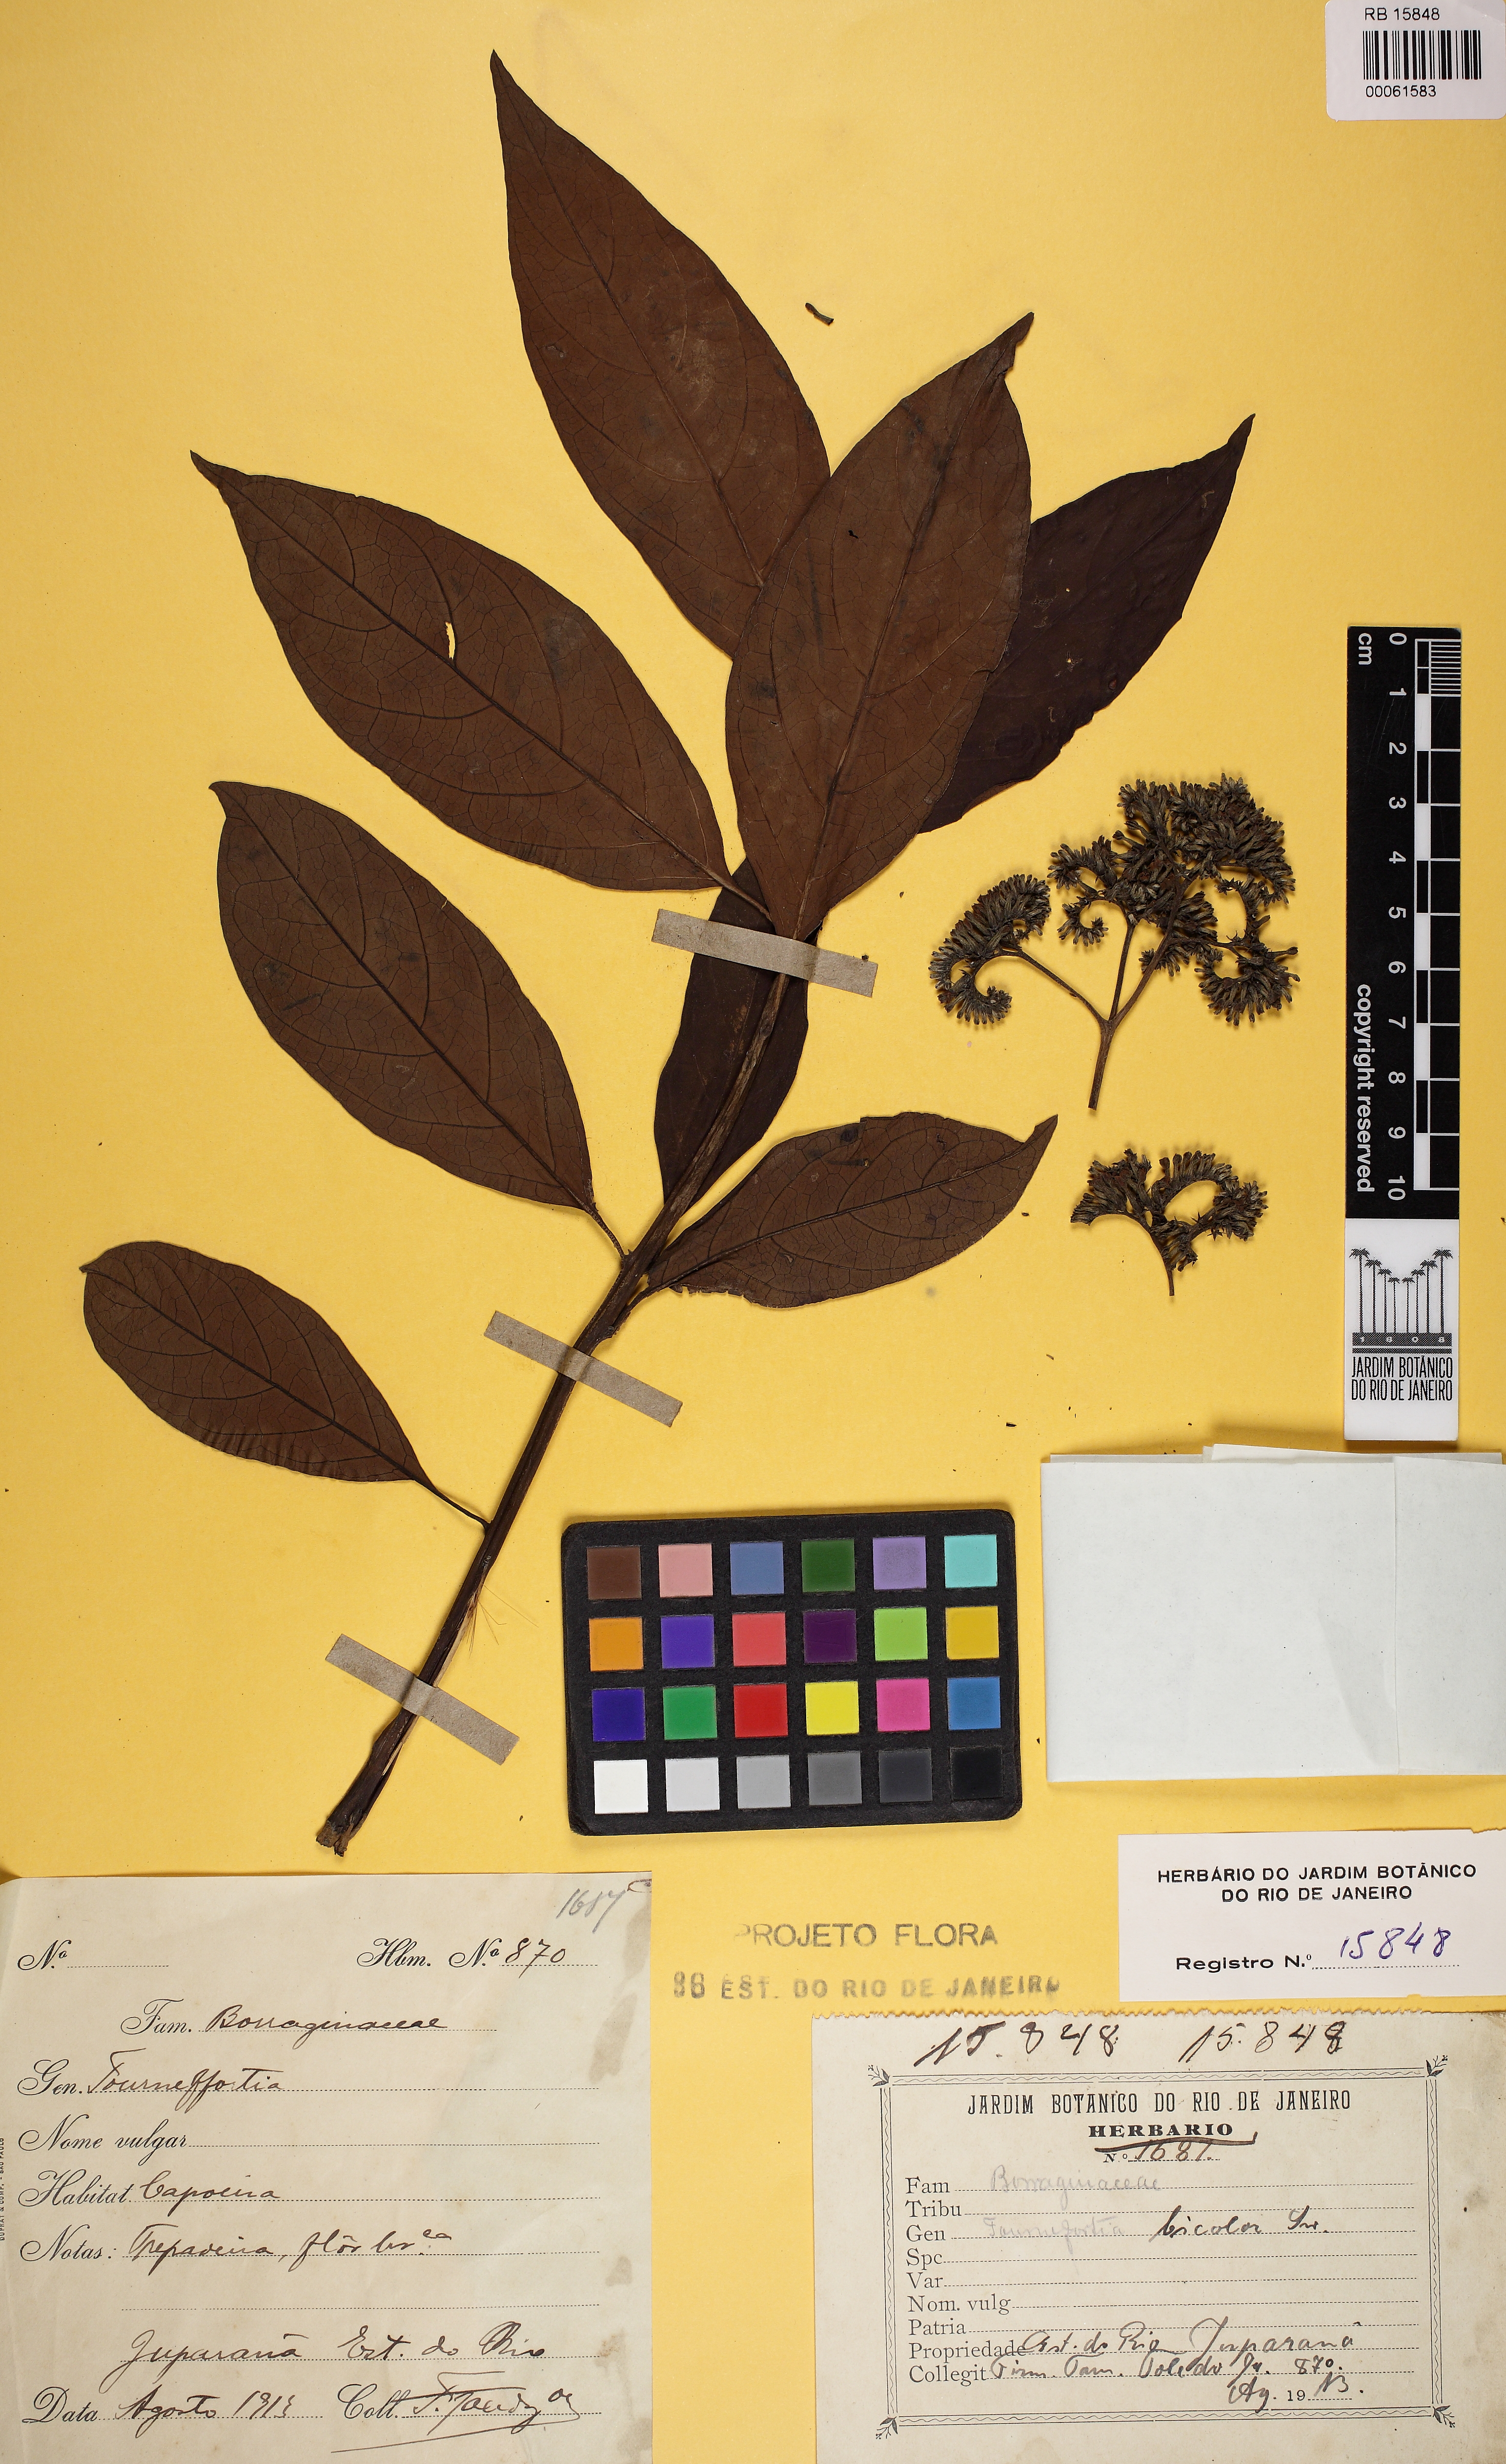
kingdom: Plantae
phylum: Tracheophyta
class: Magnoliopsida
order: Boraginales
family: Heliotropiaceae
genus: Heliotropium
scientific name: Heliotropium verdcourtii
